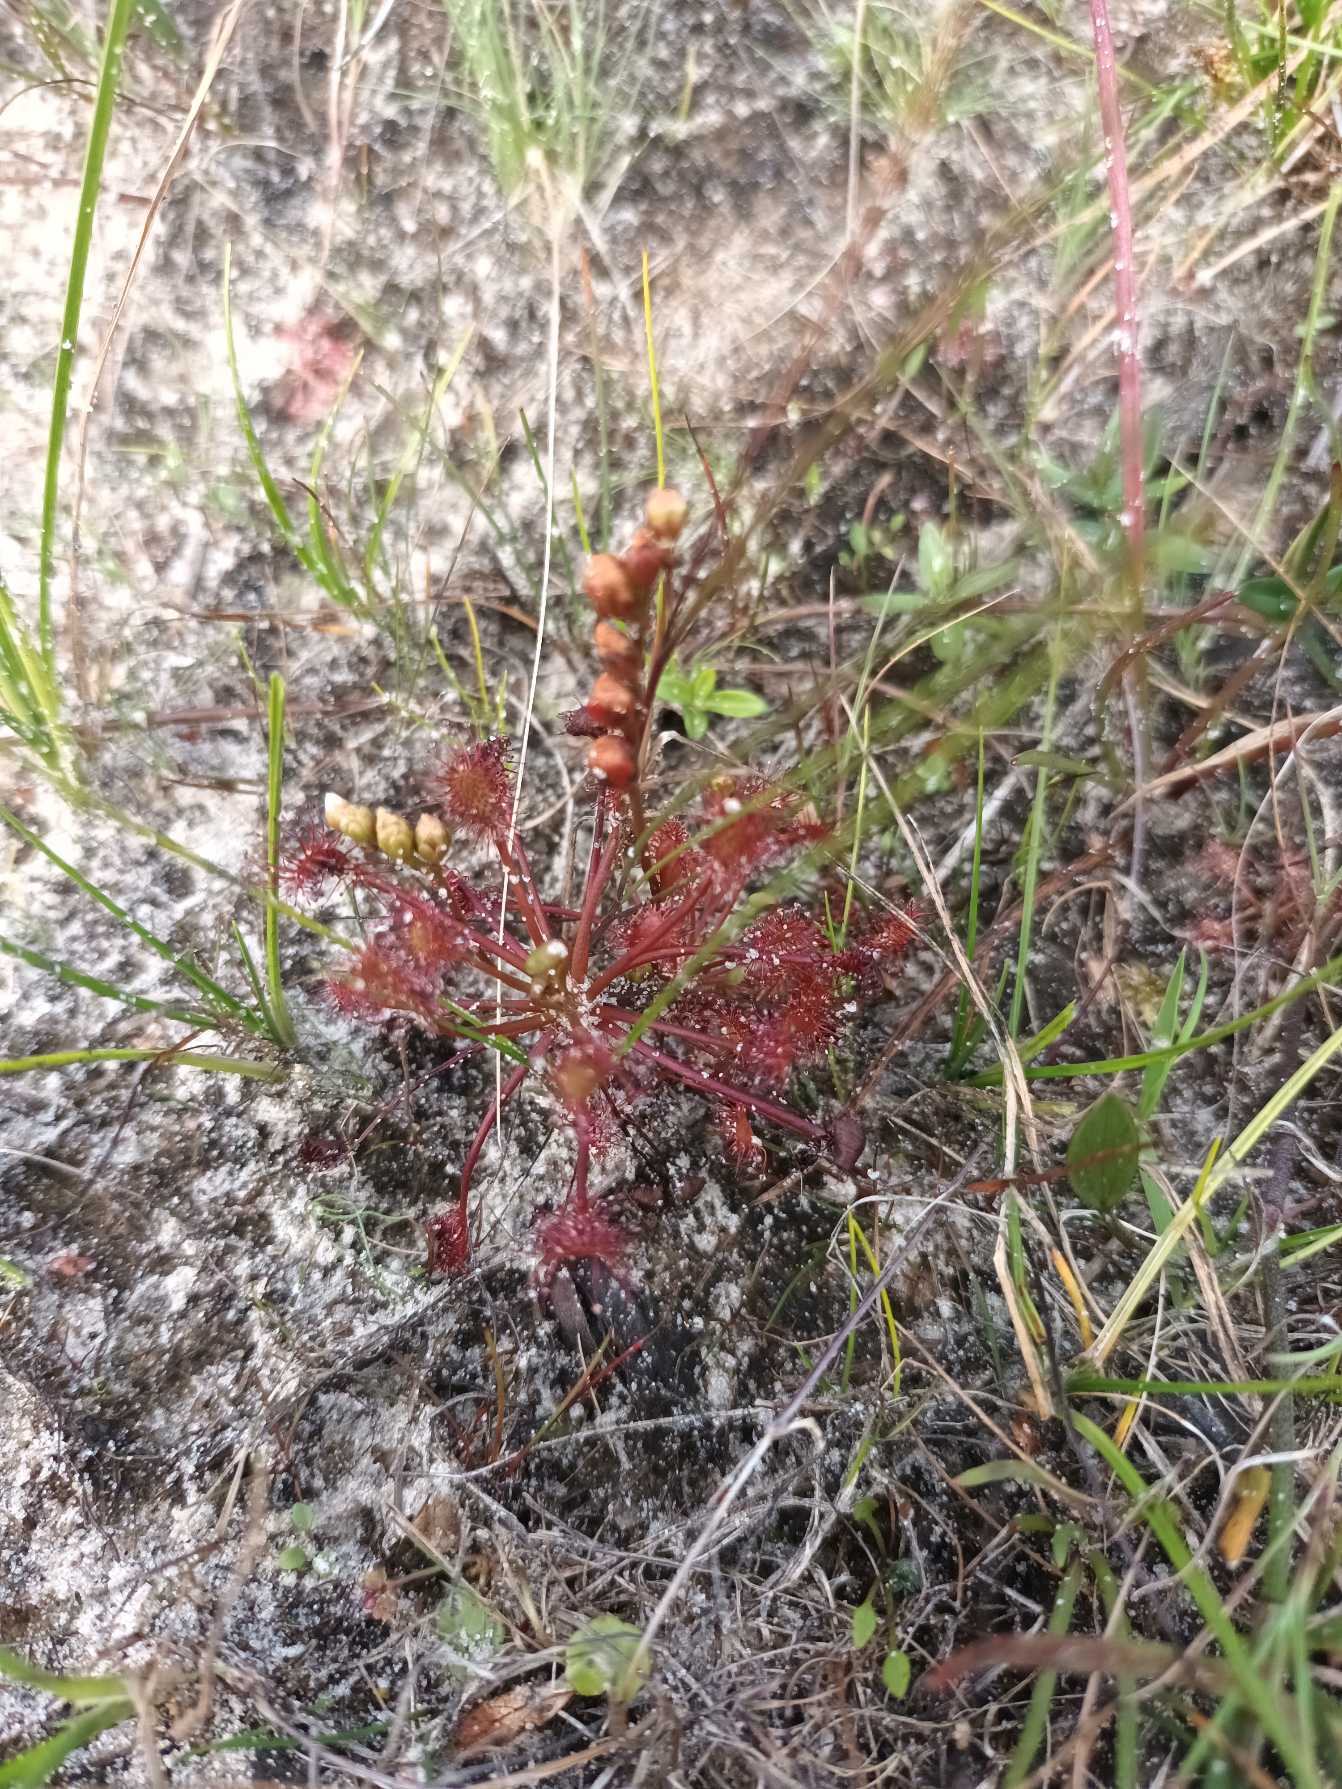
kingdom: Plantae
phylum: Tracheophyta
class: Magnoliopsida
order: Caryophyllales
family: Droseraceae
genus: Drosera
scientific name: Drosera intermedia
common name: Liden soldug
